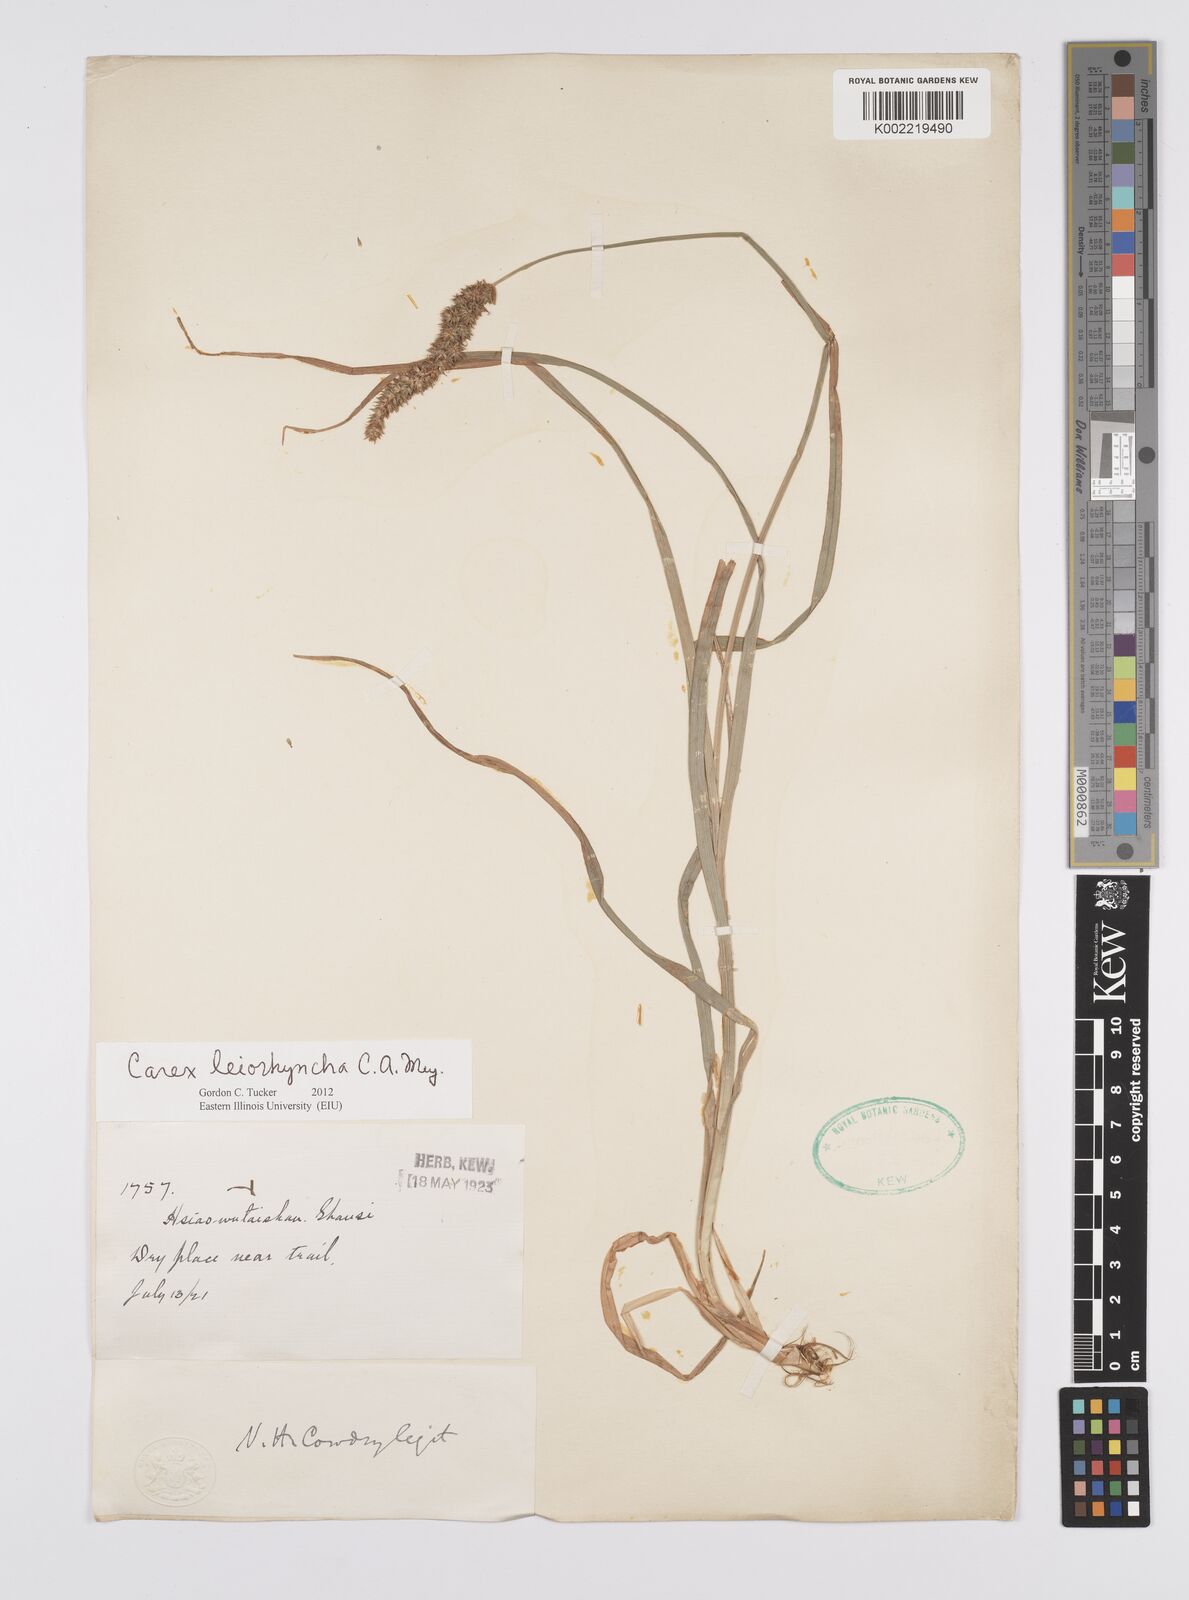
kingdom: Plantae
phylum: Tracheophyta
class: Liliopsida
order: Poales
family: Cyperaceae
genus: Carex
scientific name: Carex leiorhyncha
